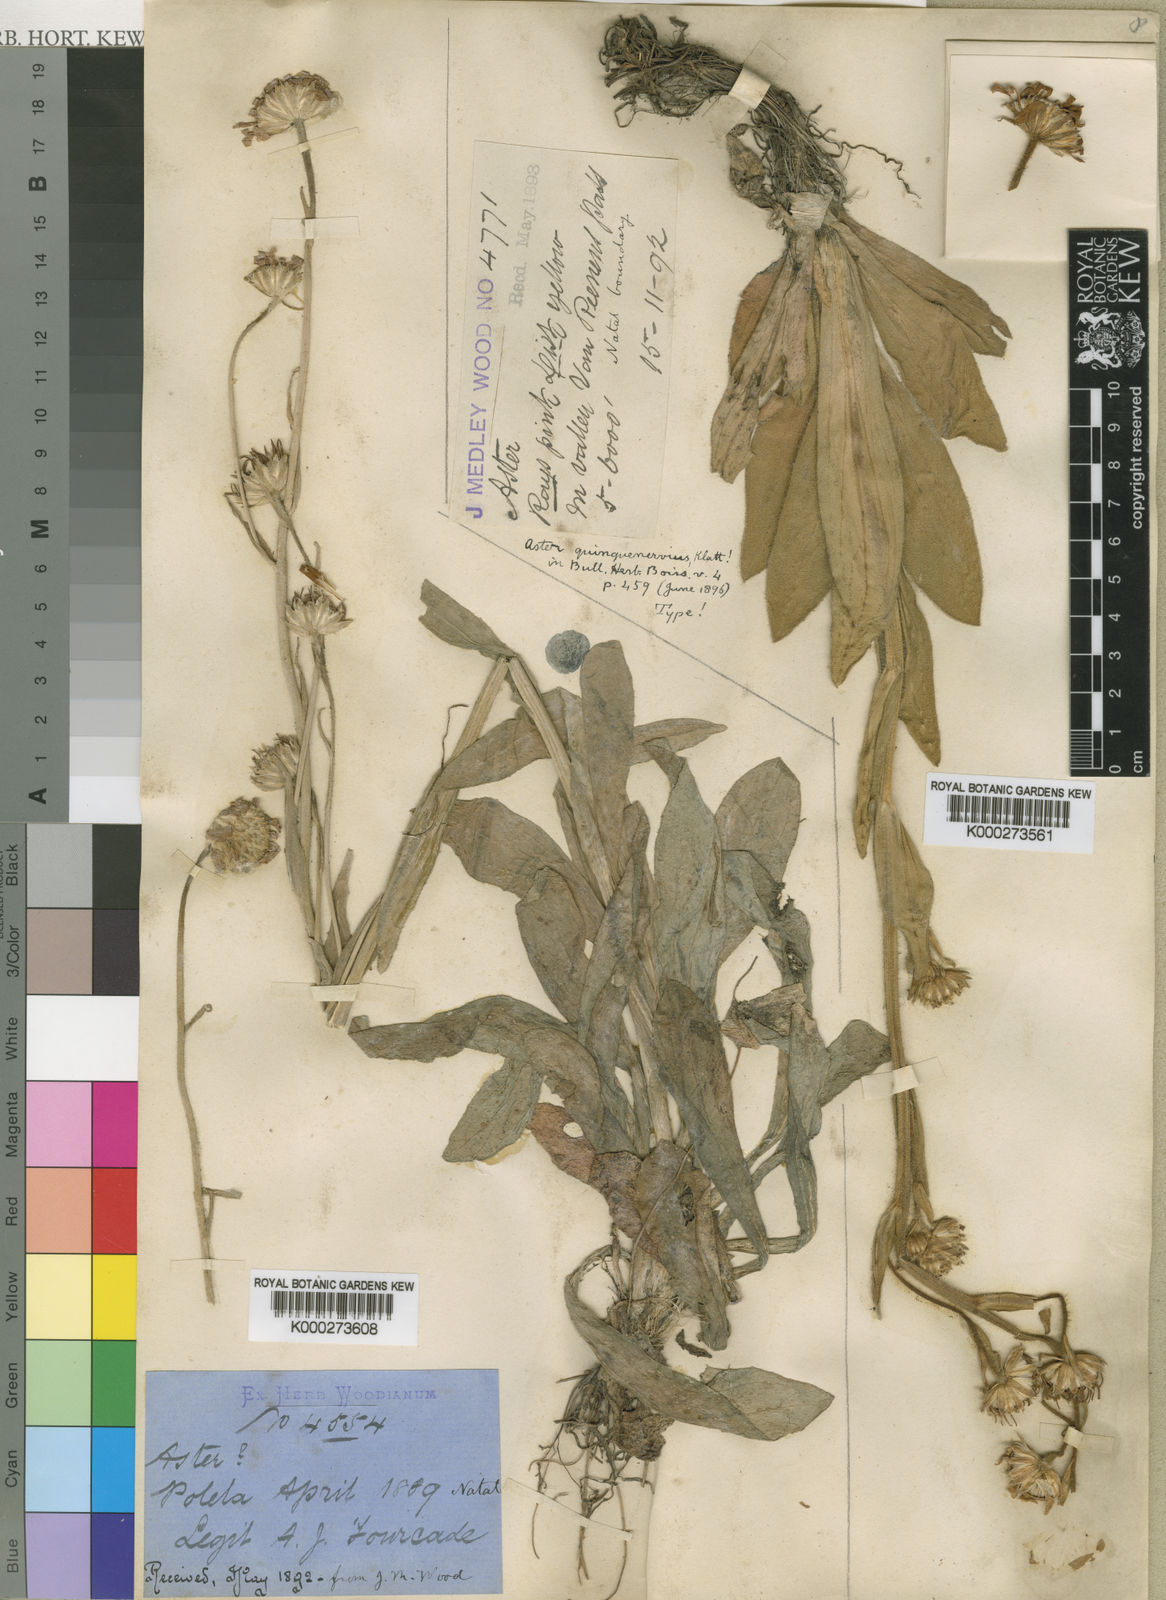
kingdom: Plantae
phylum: Tracheophyta
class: Magnoliopsida
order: Asterales
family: Asteraceae
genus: Felicia
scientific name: Felicia quinquenervia
